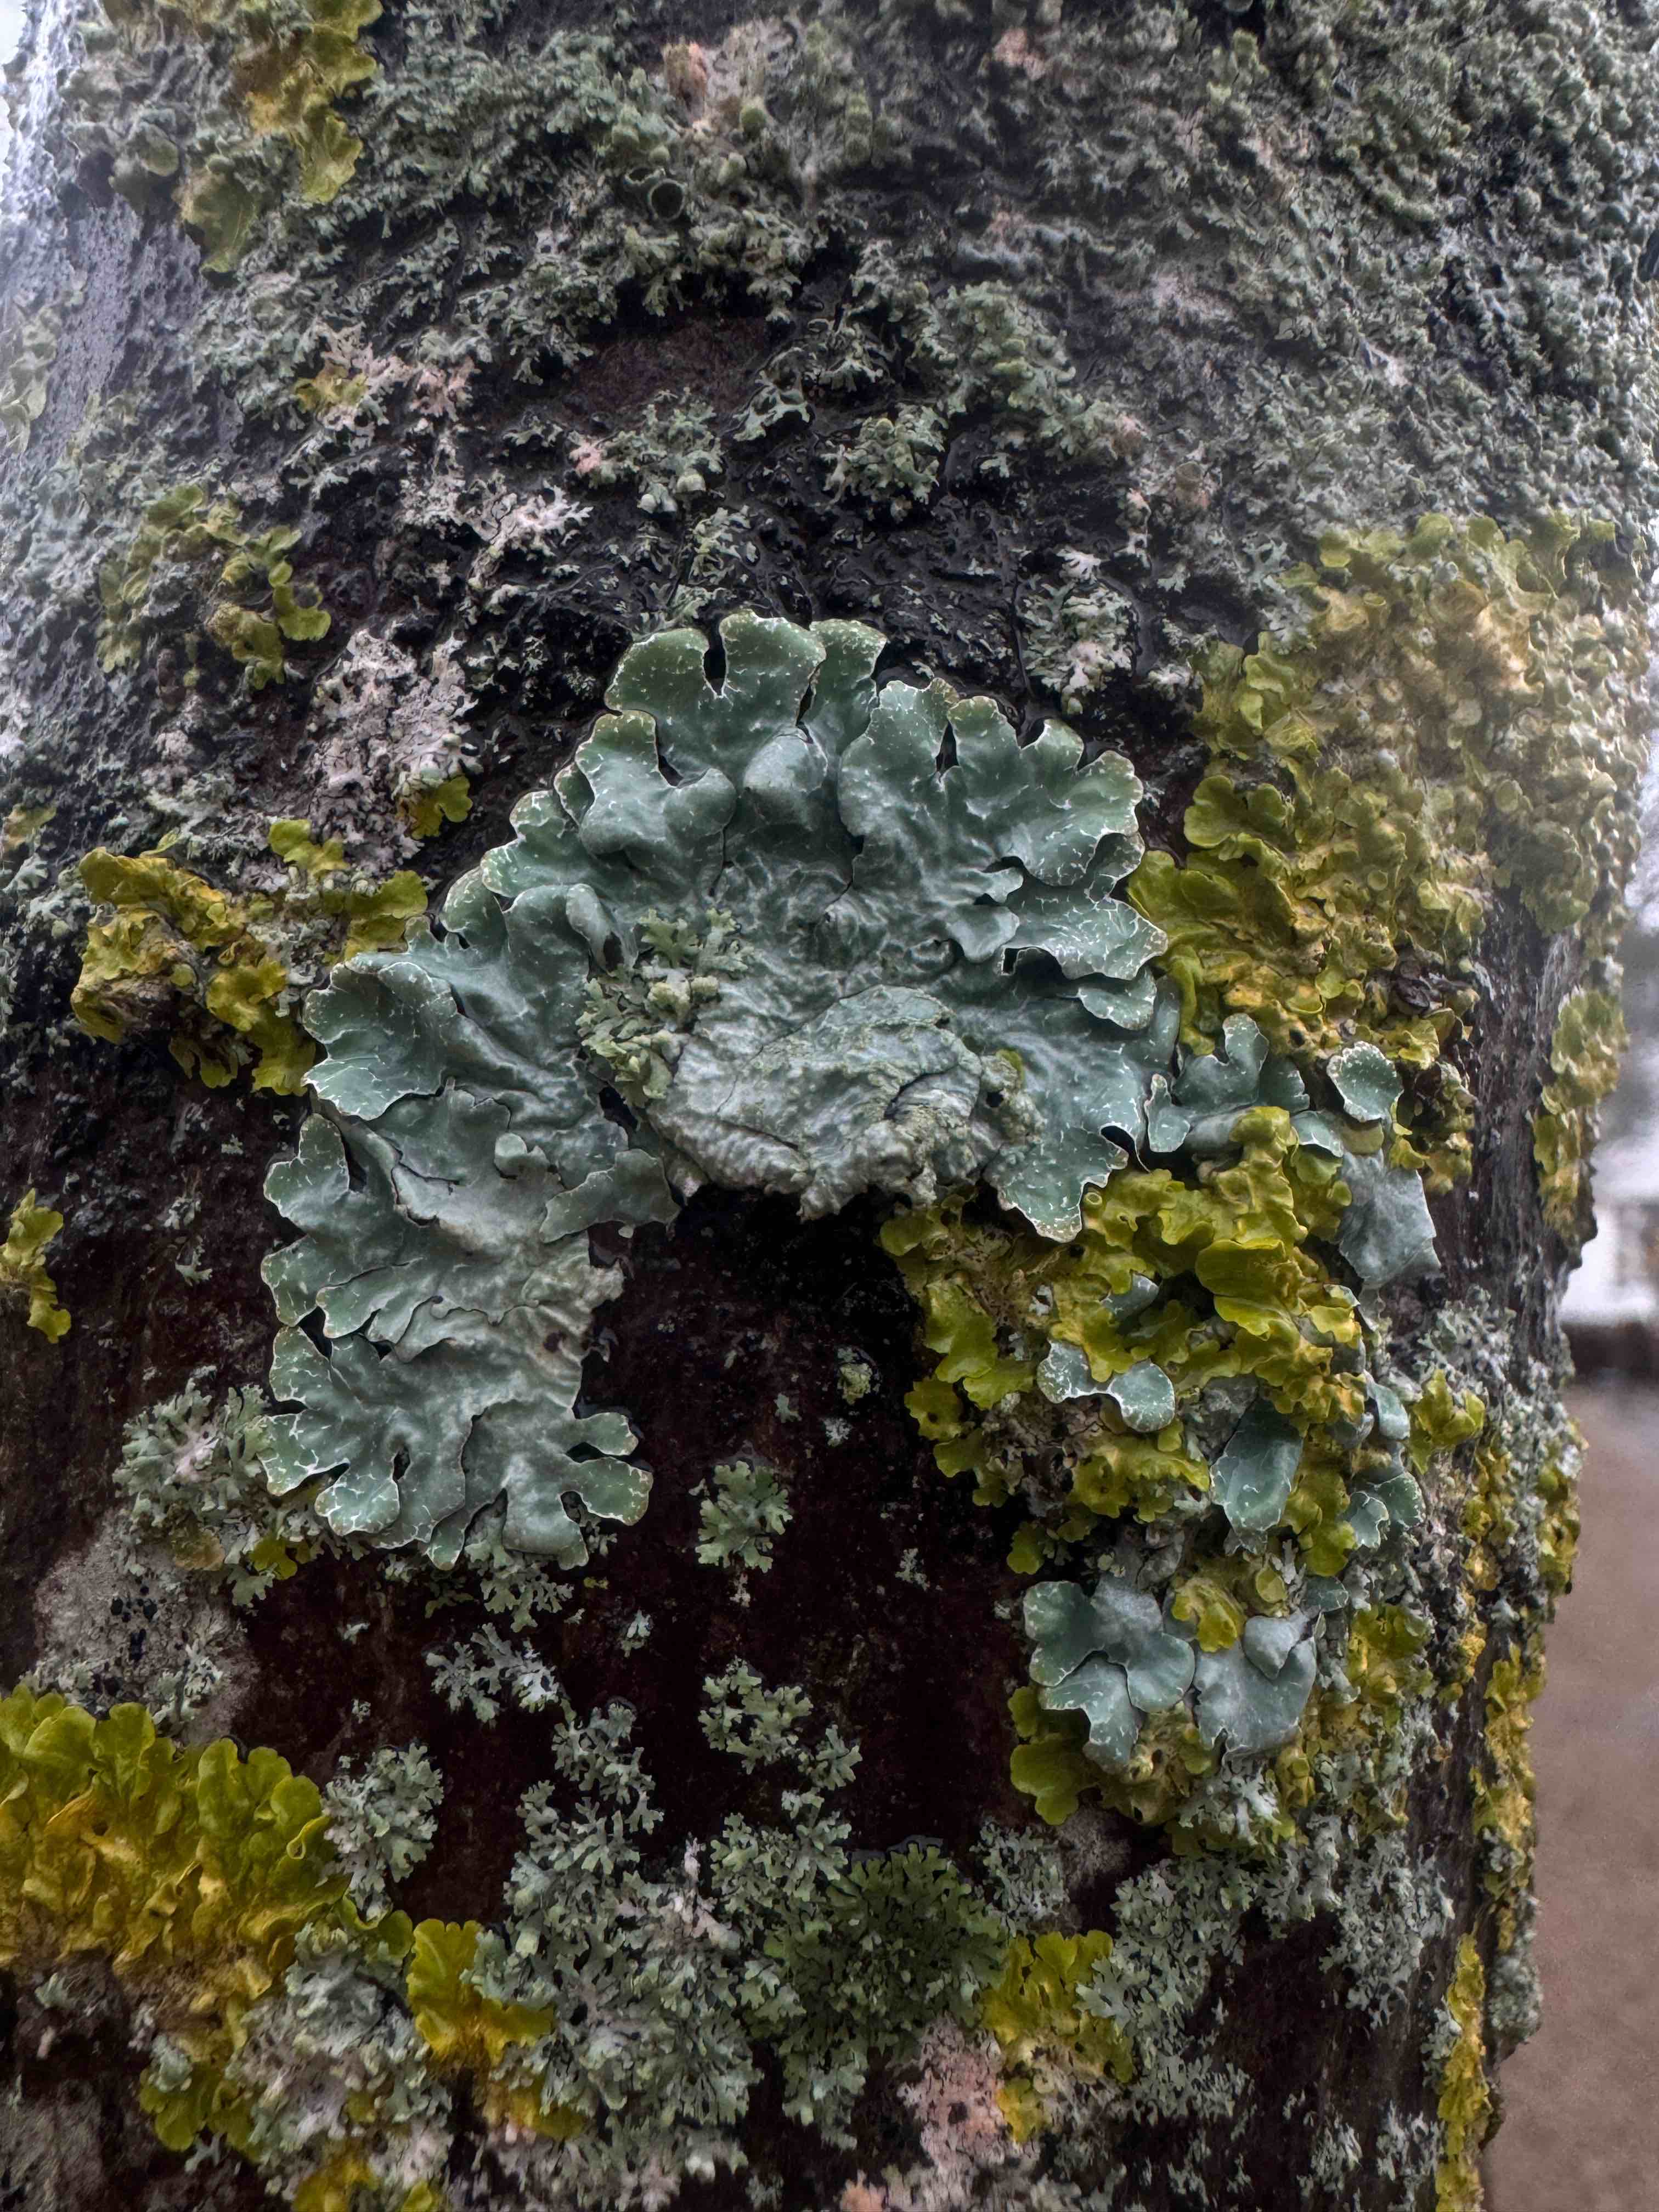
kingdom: Fungi
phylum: Ascomycota
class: Lecanoromycetes
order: Lecanorales
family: Parmeliaceae
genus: Parmelia
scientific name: Parmelia sulcata
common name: rynket skållav
